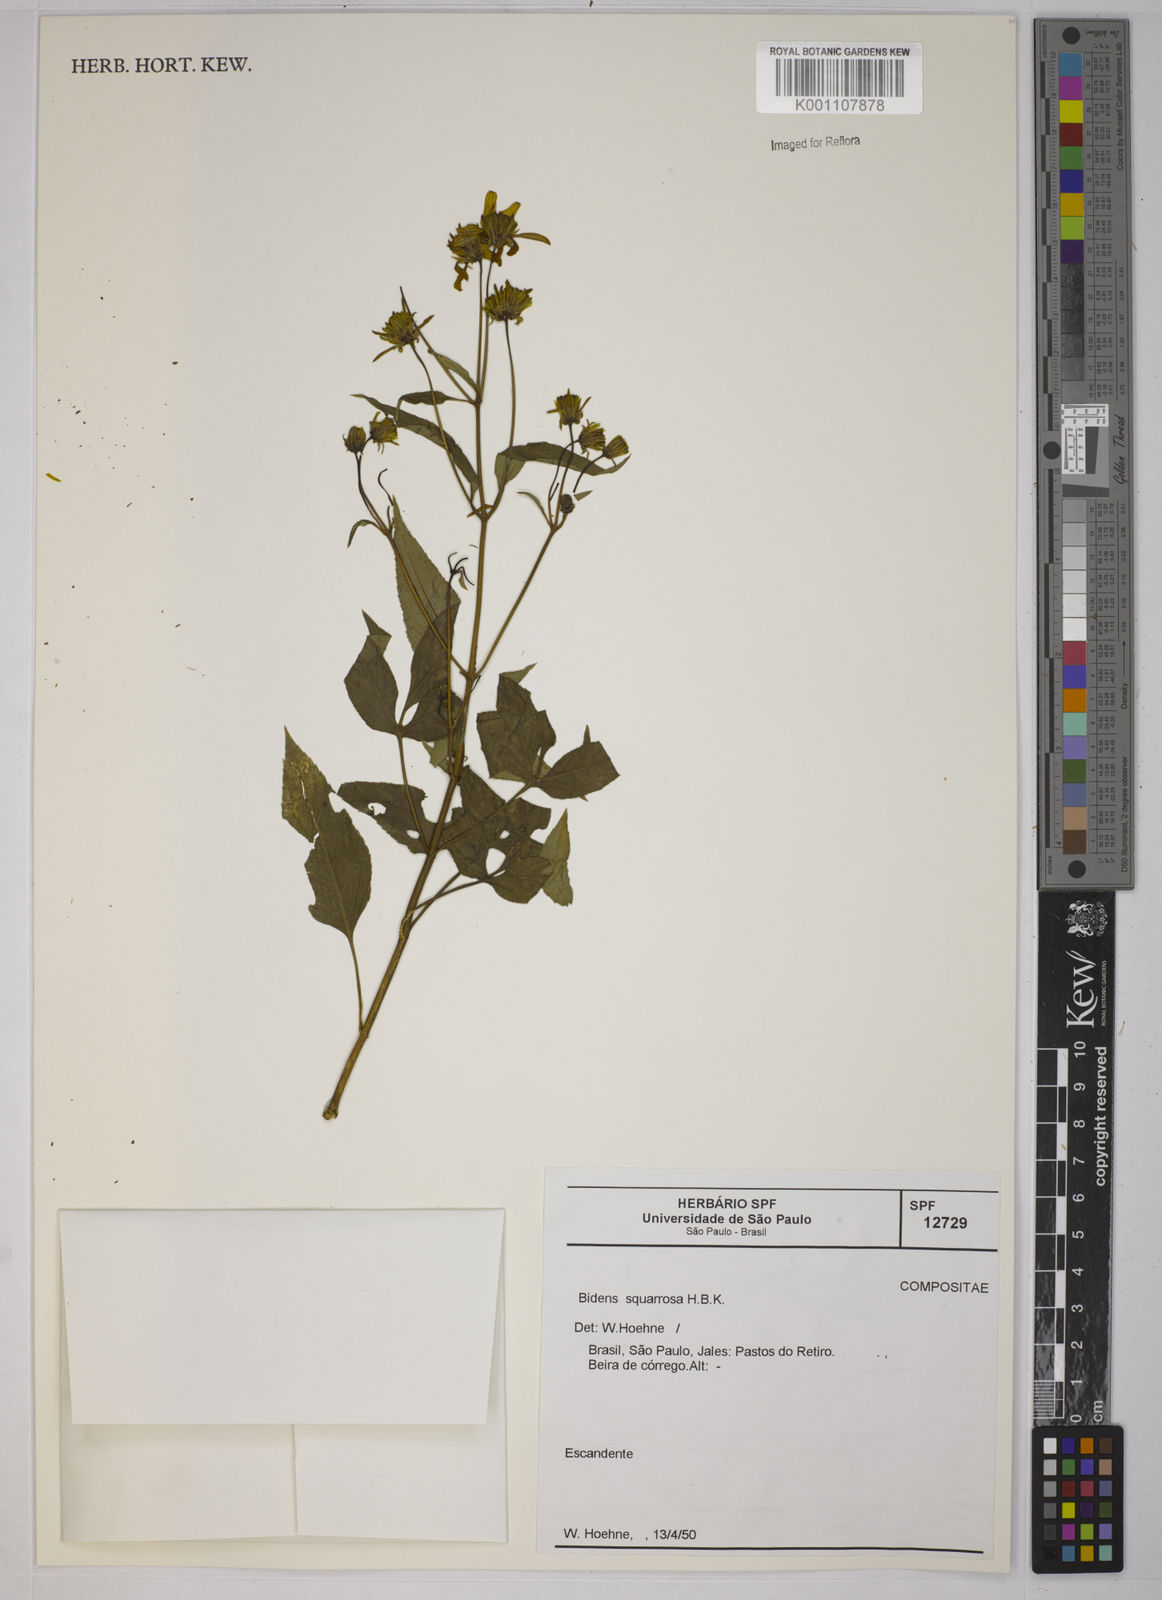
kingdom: Plantae
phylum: Tracheophyta
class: Magnoliopsida
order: Asterales
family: Asteraceae
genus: Bidens
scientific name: Bidens
